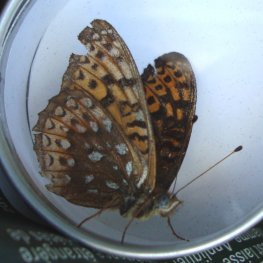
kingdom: Animalia
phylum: Arthropoda
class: Insecta
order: Lepidoptera
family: Nymphalidae
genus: Speyeria
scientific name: Speyeria atlantis
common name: Atlantis Fritillary
